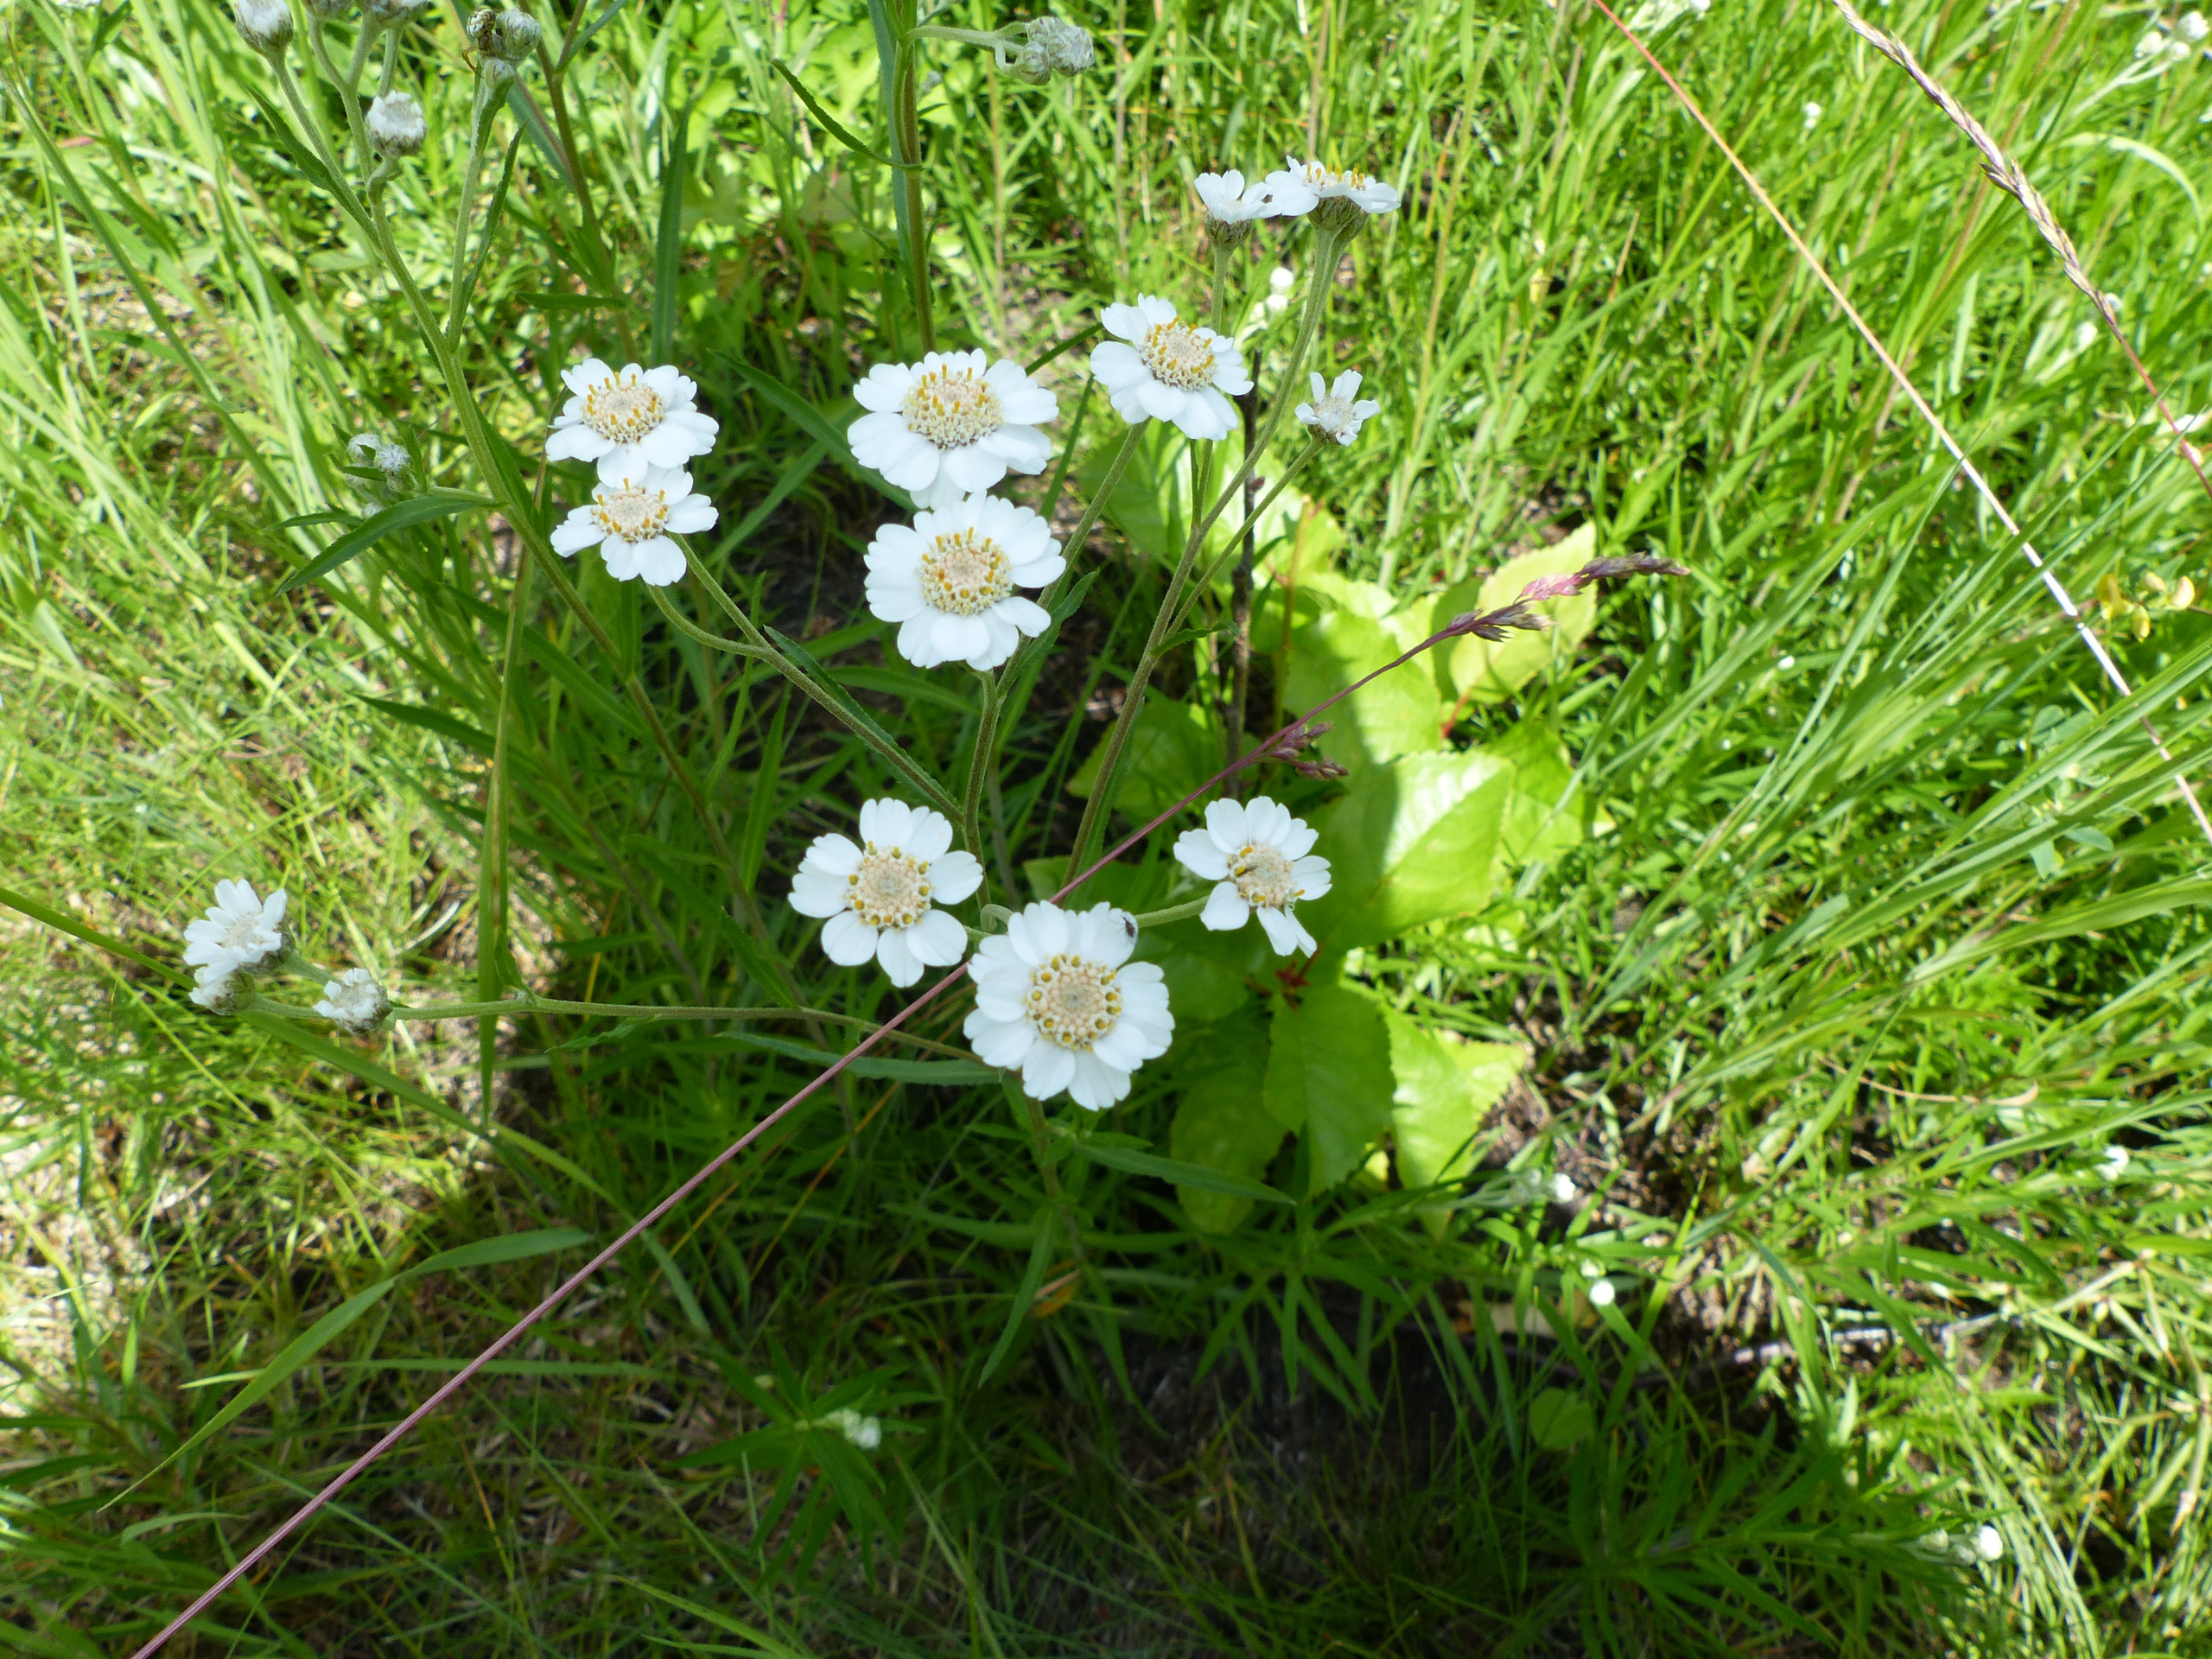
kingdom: Plantae
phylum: Tracheophyta
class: Magnoliopsida
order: Asterales
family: Asteraceae
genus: Achillea
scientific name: Achillea ptarmica
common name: Nyse-røllike
